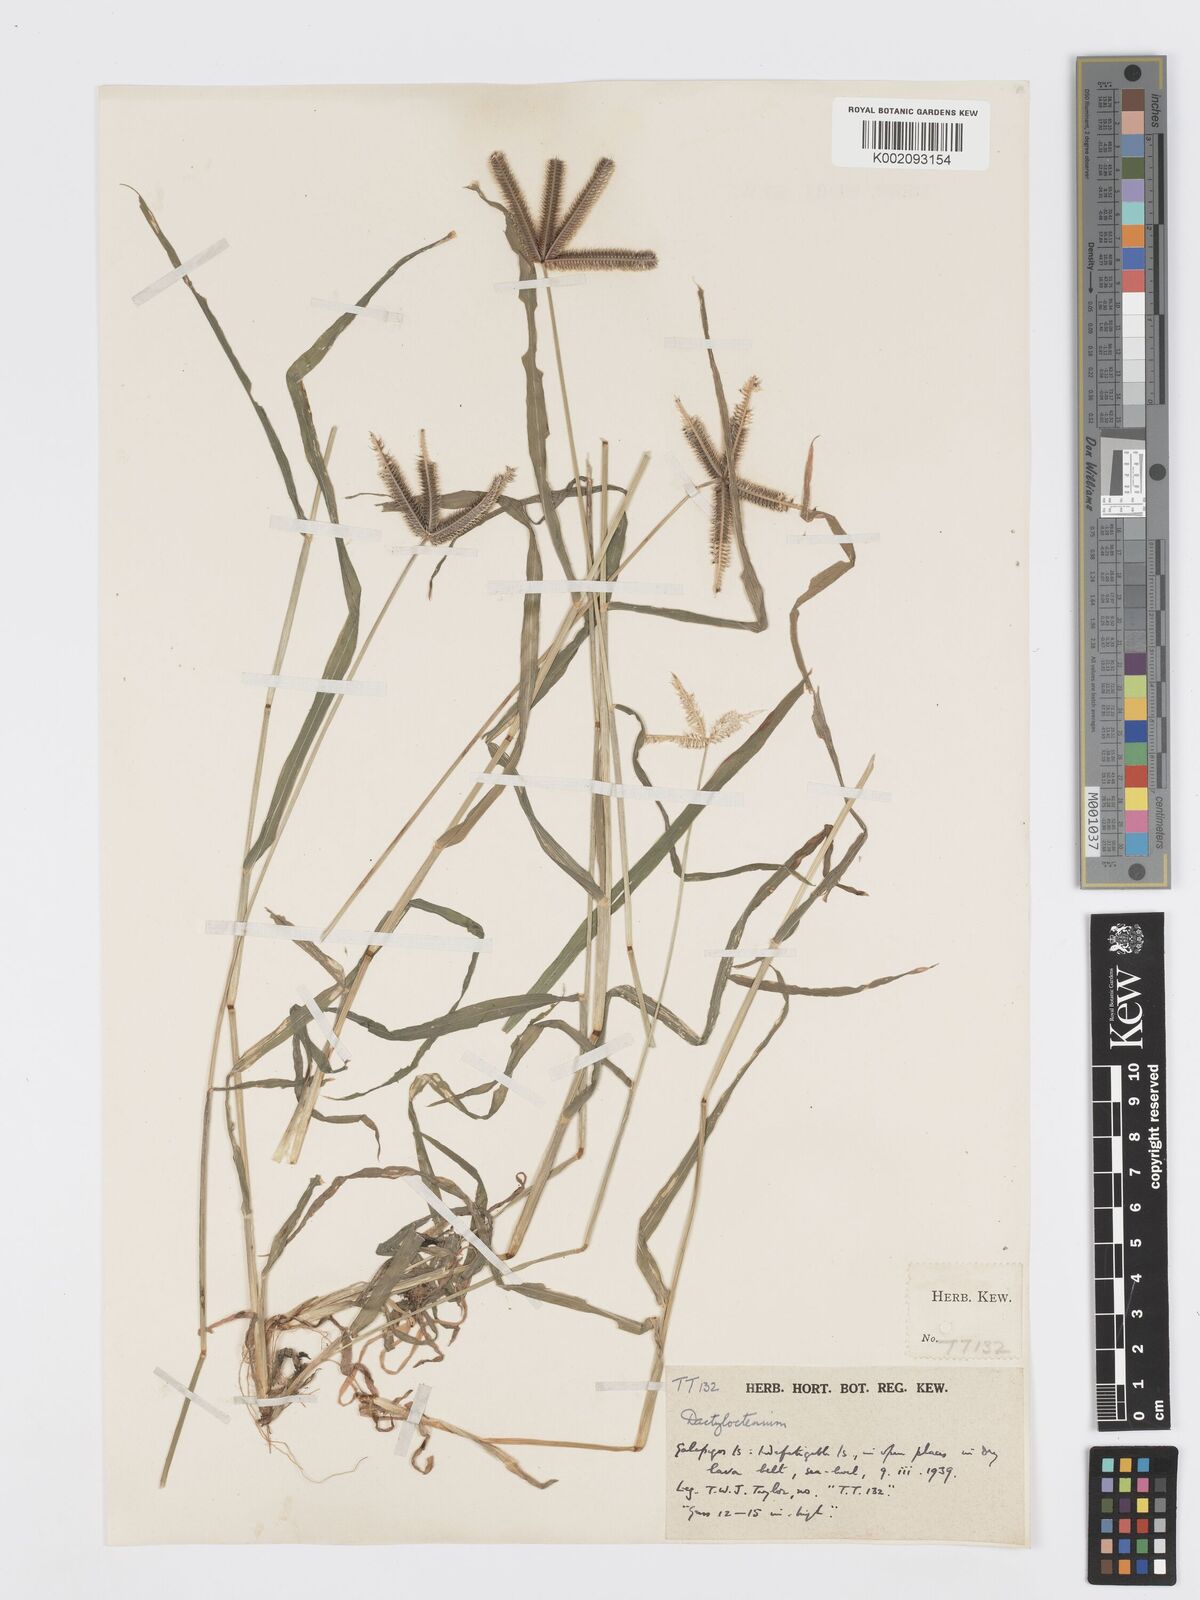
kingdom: Plantae
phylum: Tracheophyta
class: Liliopsida
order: Poales
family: Poaceae
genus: Dactyloctenium
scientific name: Dactyloctenium aegyptium
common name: Egyptian grass
